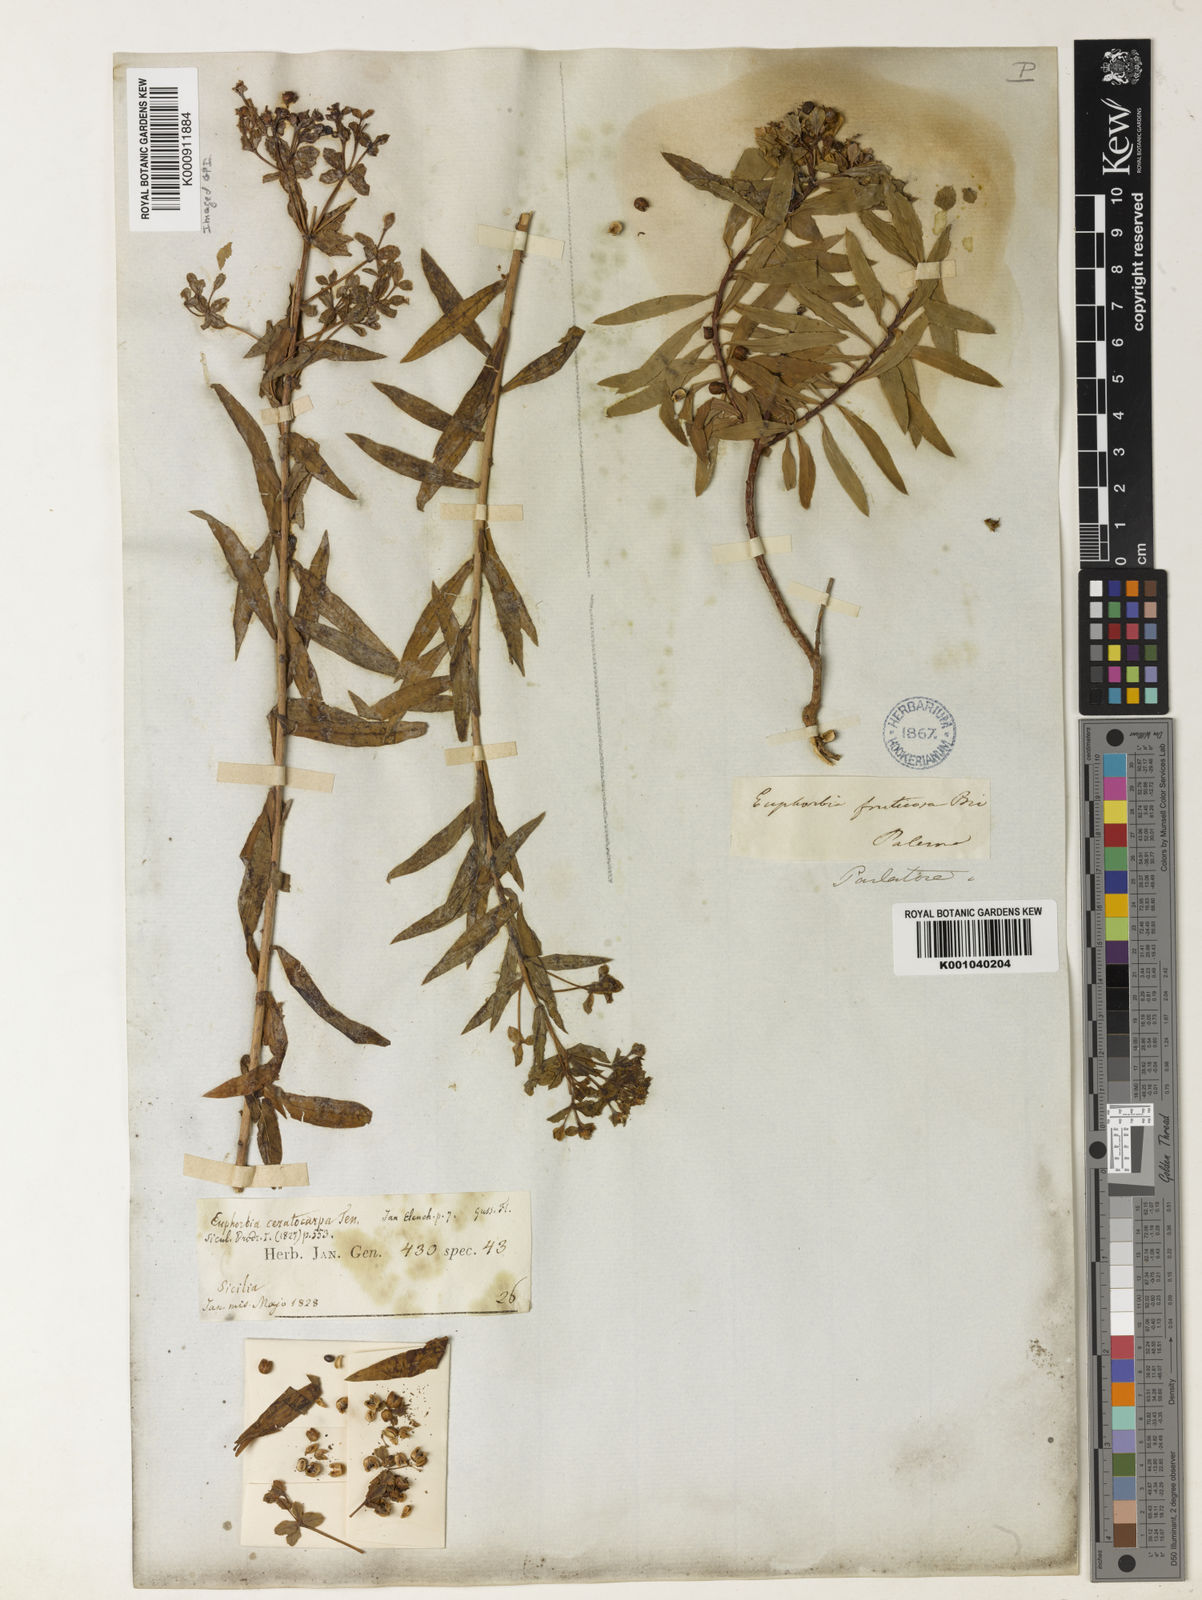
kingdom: Plantae
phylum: Tracheophyta
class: Magnoliopsida
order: Malpighiales
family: Euphorbiaceae
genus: Euphorbia
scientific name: Euphorbia ceratocarpa
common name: Horned spurge
